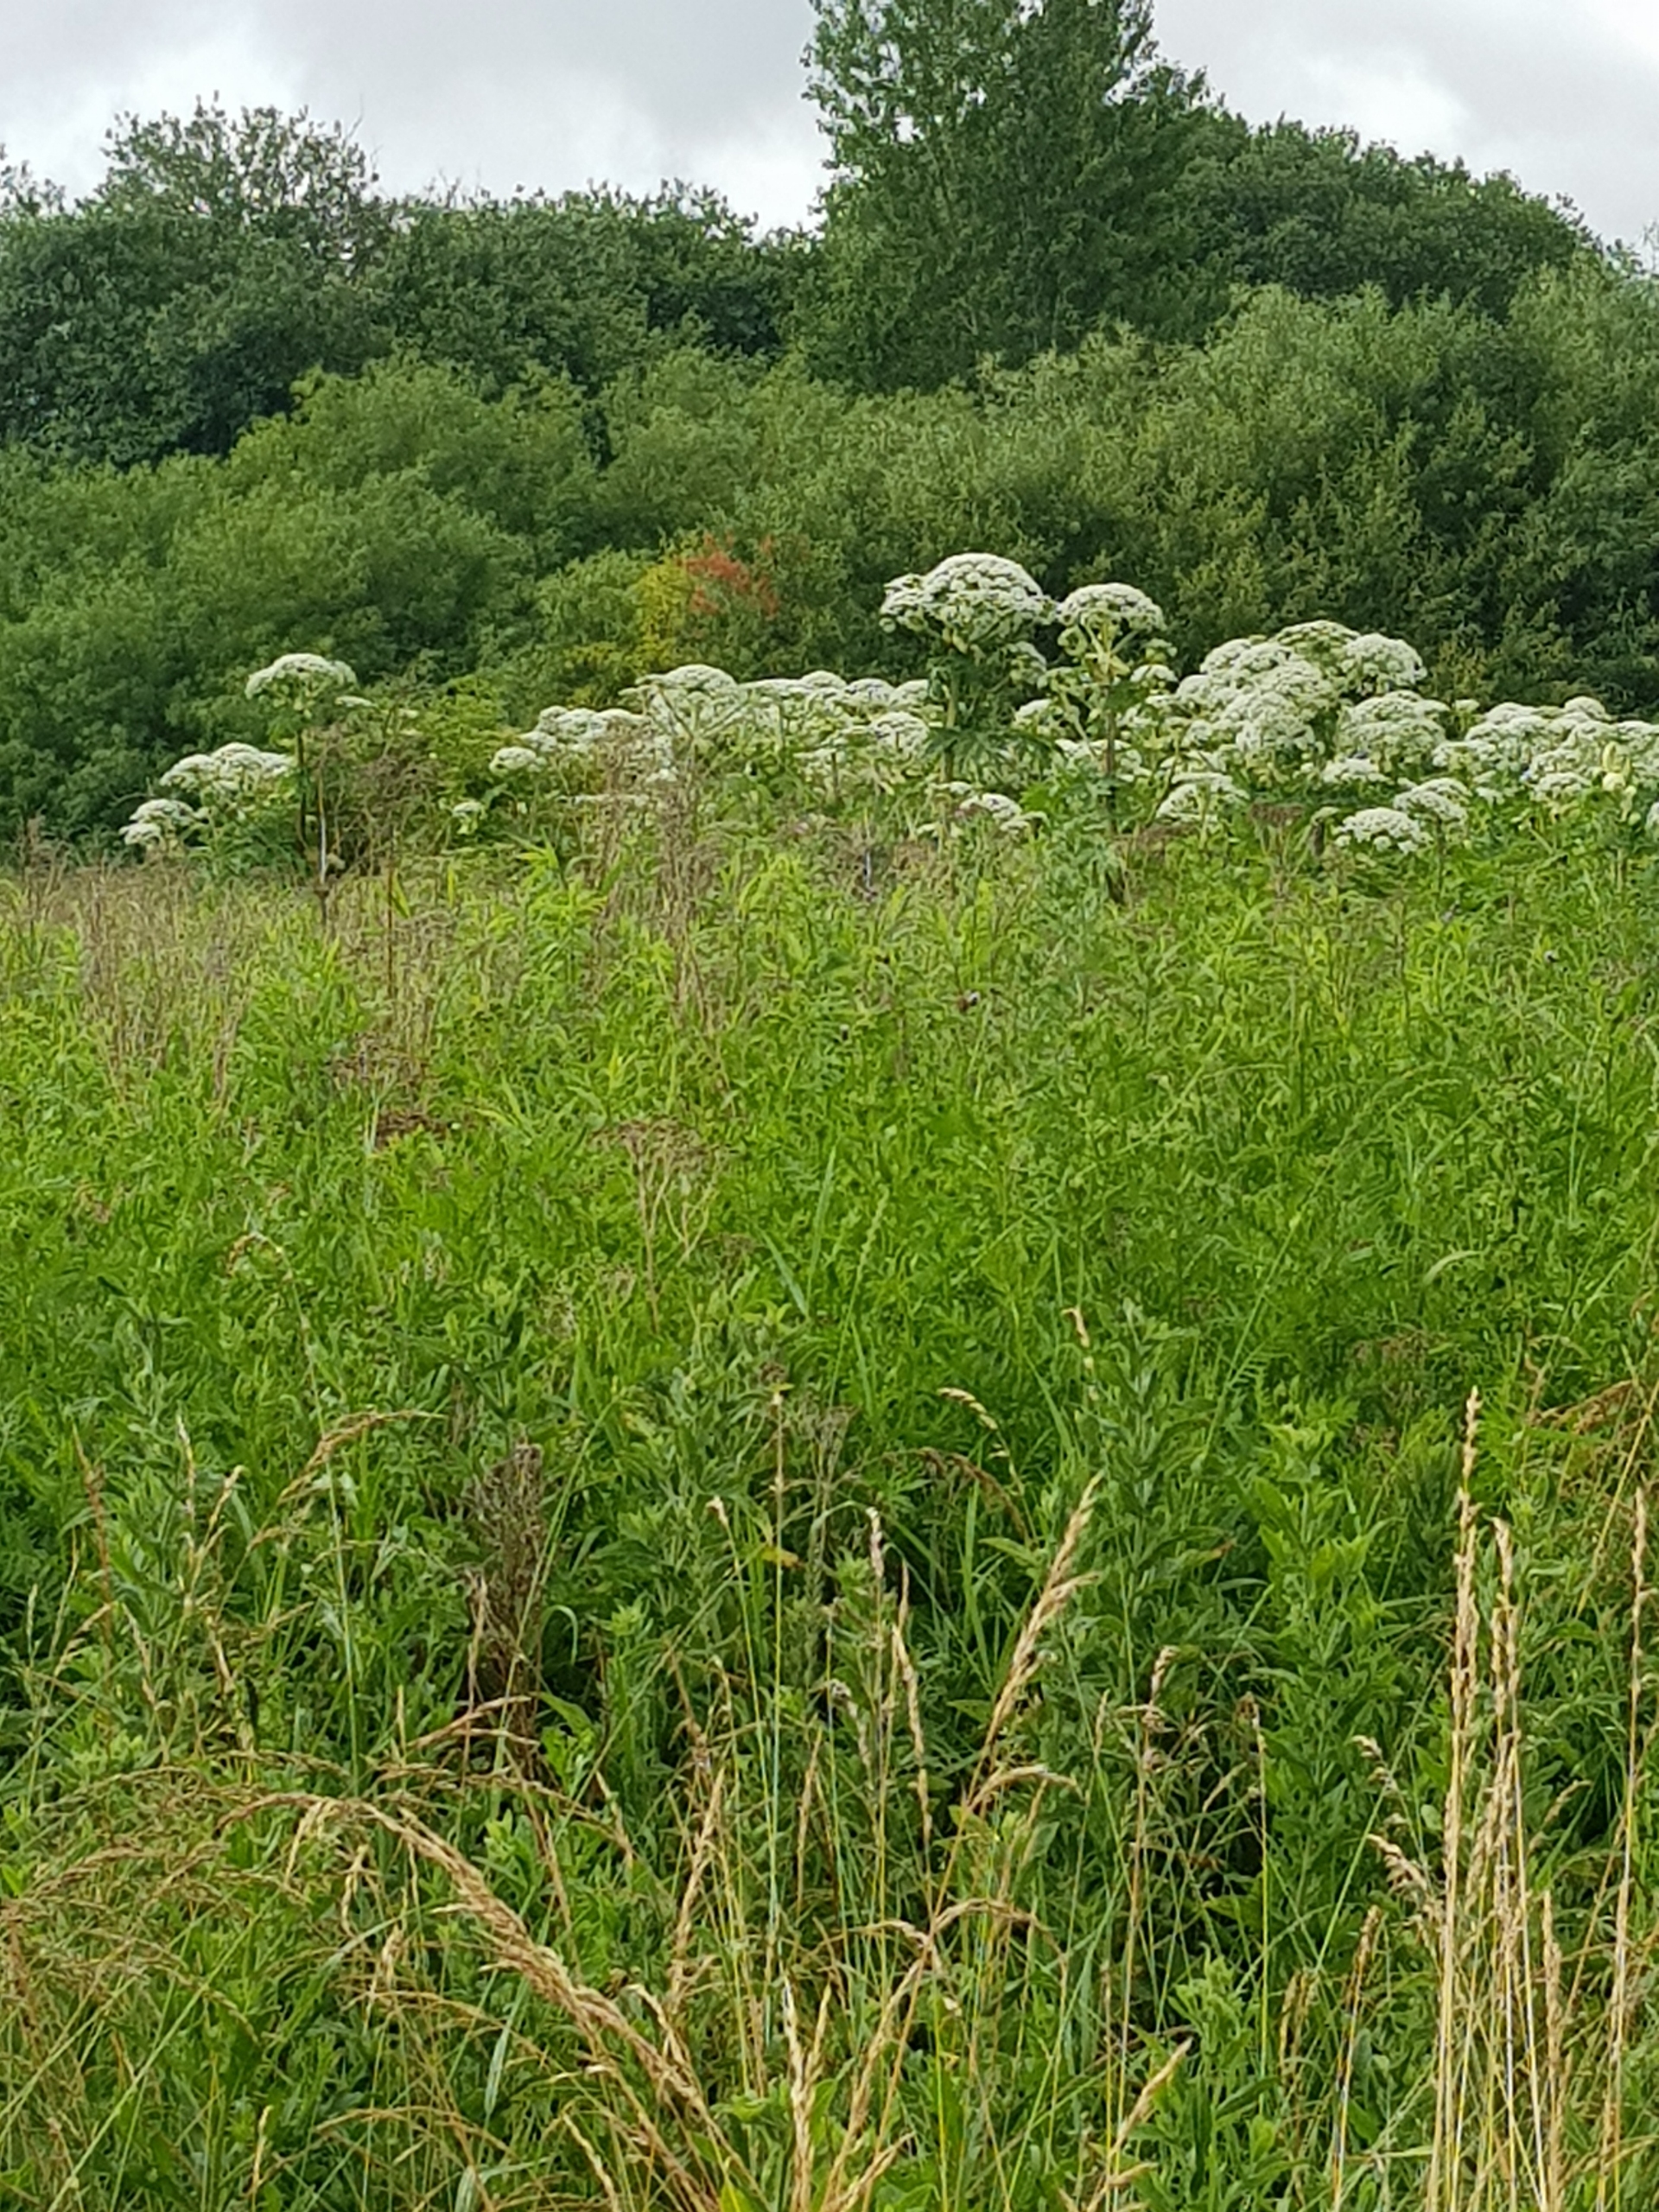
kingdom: Plantae
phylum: Tracheophyta
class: Magnoliopsida
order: Apiales
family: Apiaceae
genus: Heracleum
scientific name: Heracleum mantegazzianum
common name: Kæmpe-bjørneklo
